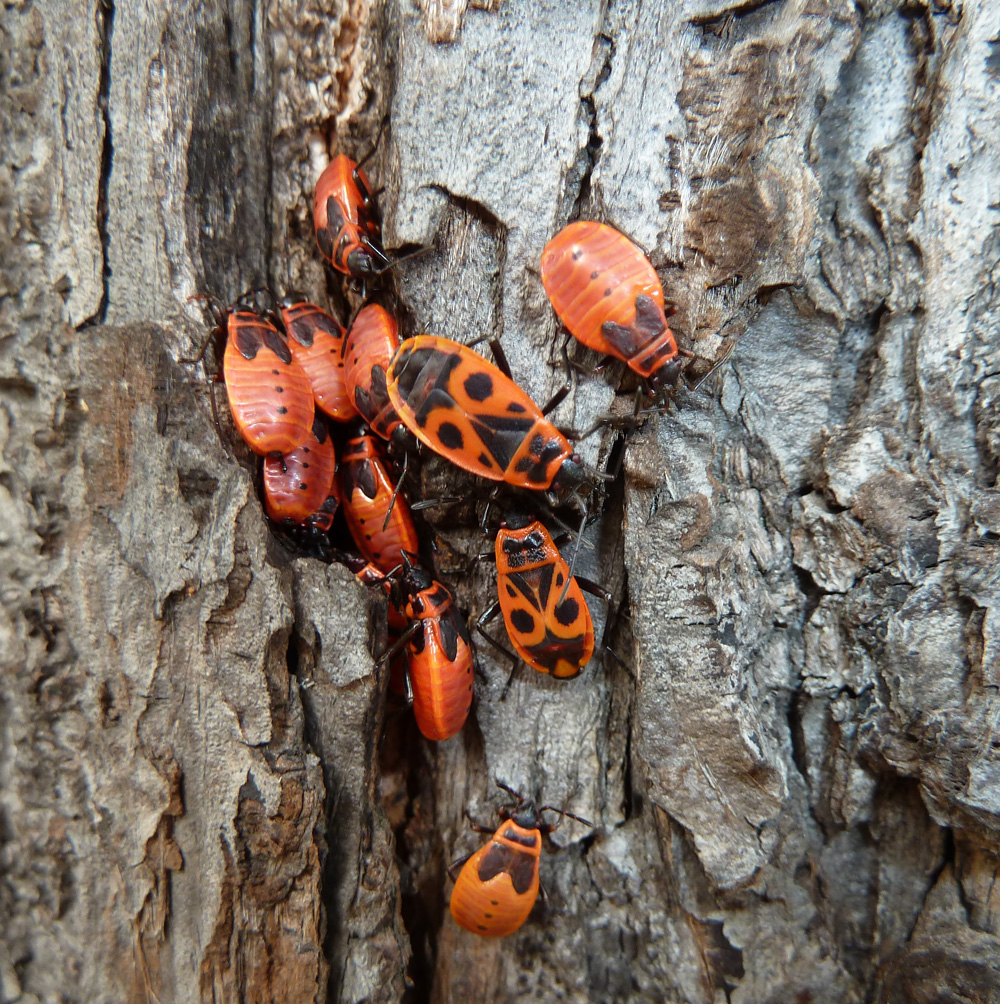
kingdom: Animalia
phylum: Arthropoda
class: Insecta
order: Hemiptera
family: Pyrrhocoridae
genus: Pyrrhocoris
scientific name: Pyrrhocoris apterus
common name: Firebug
